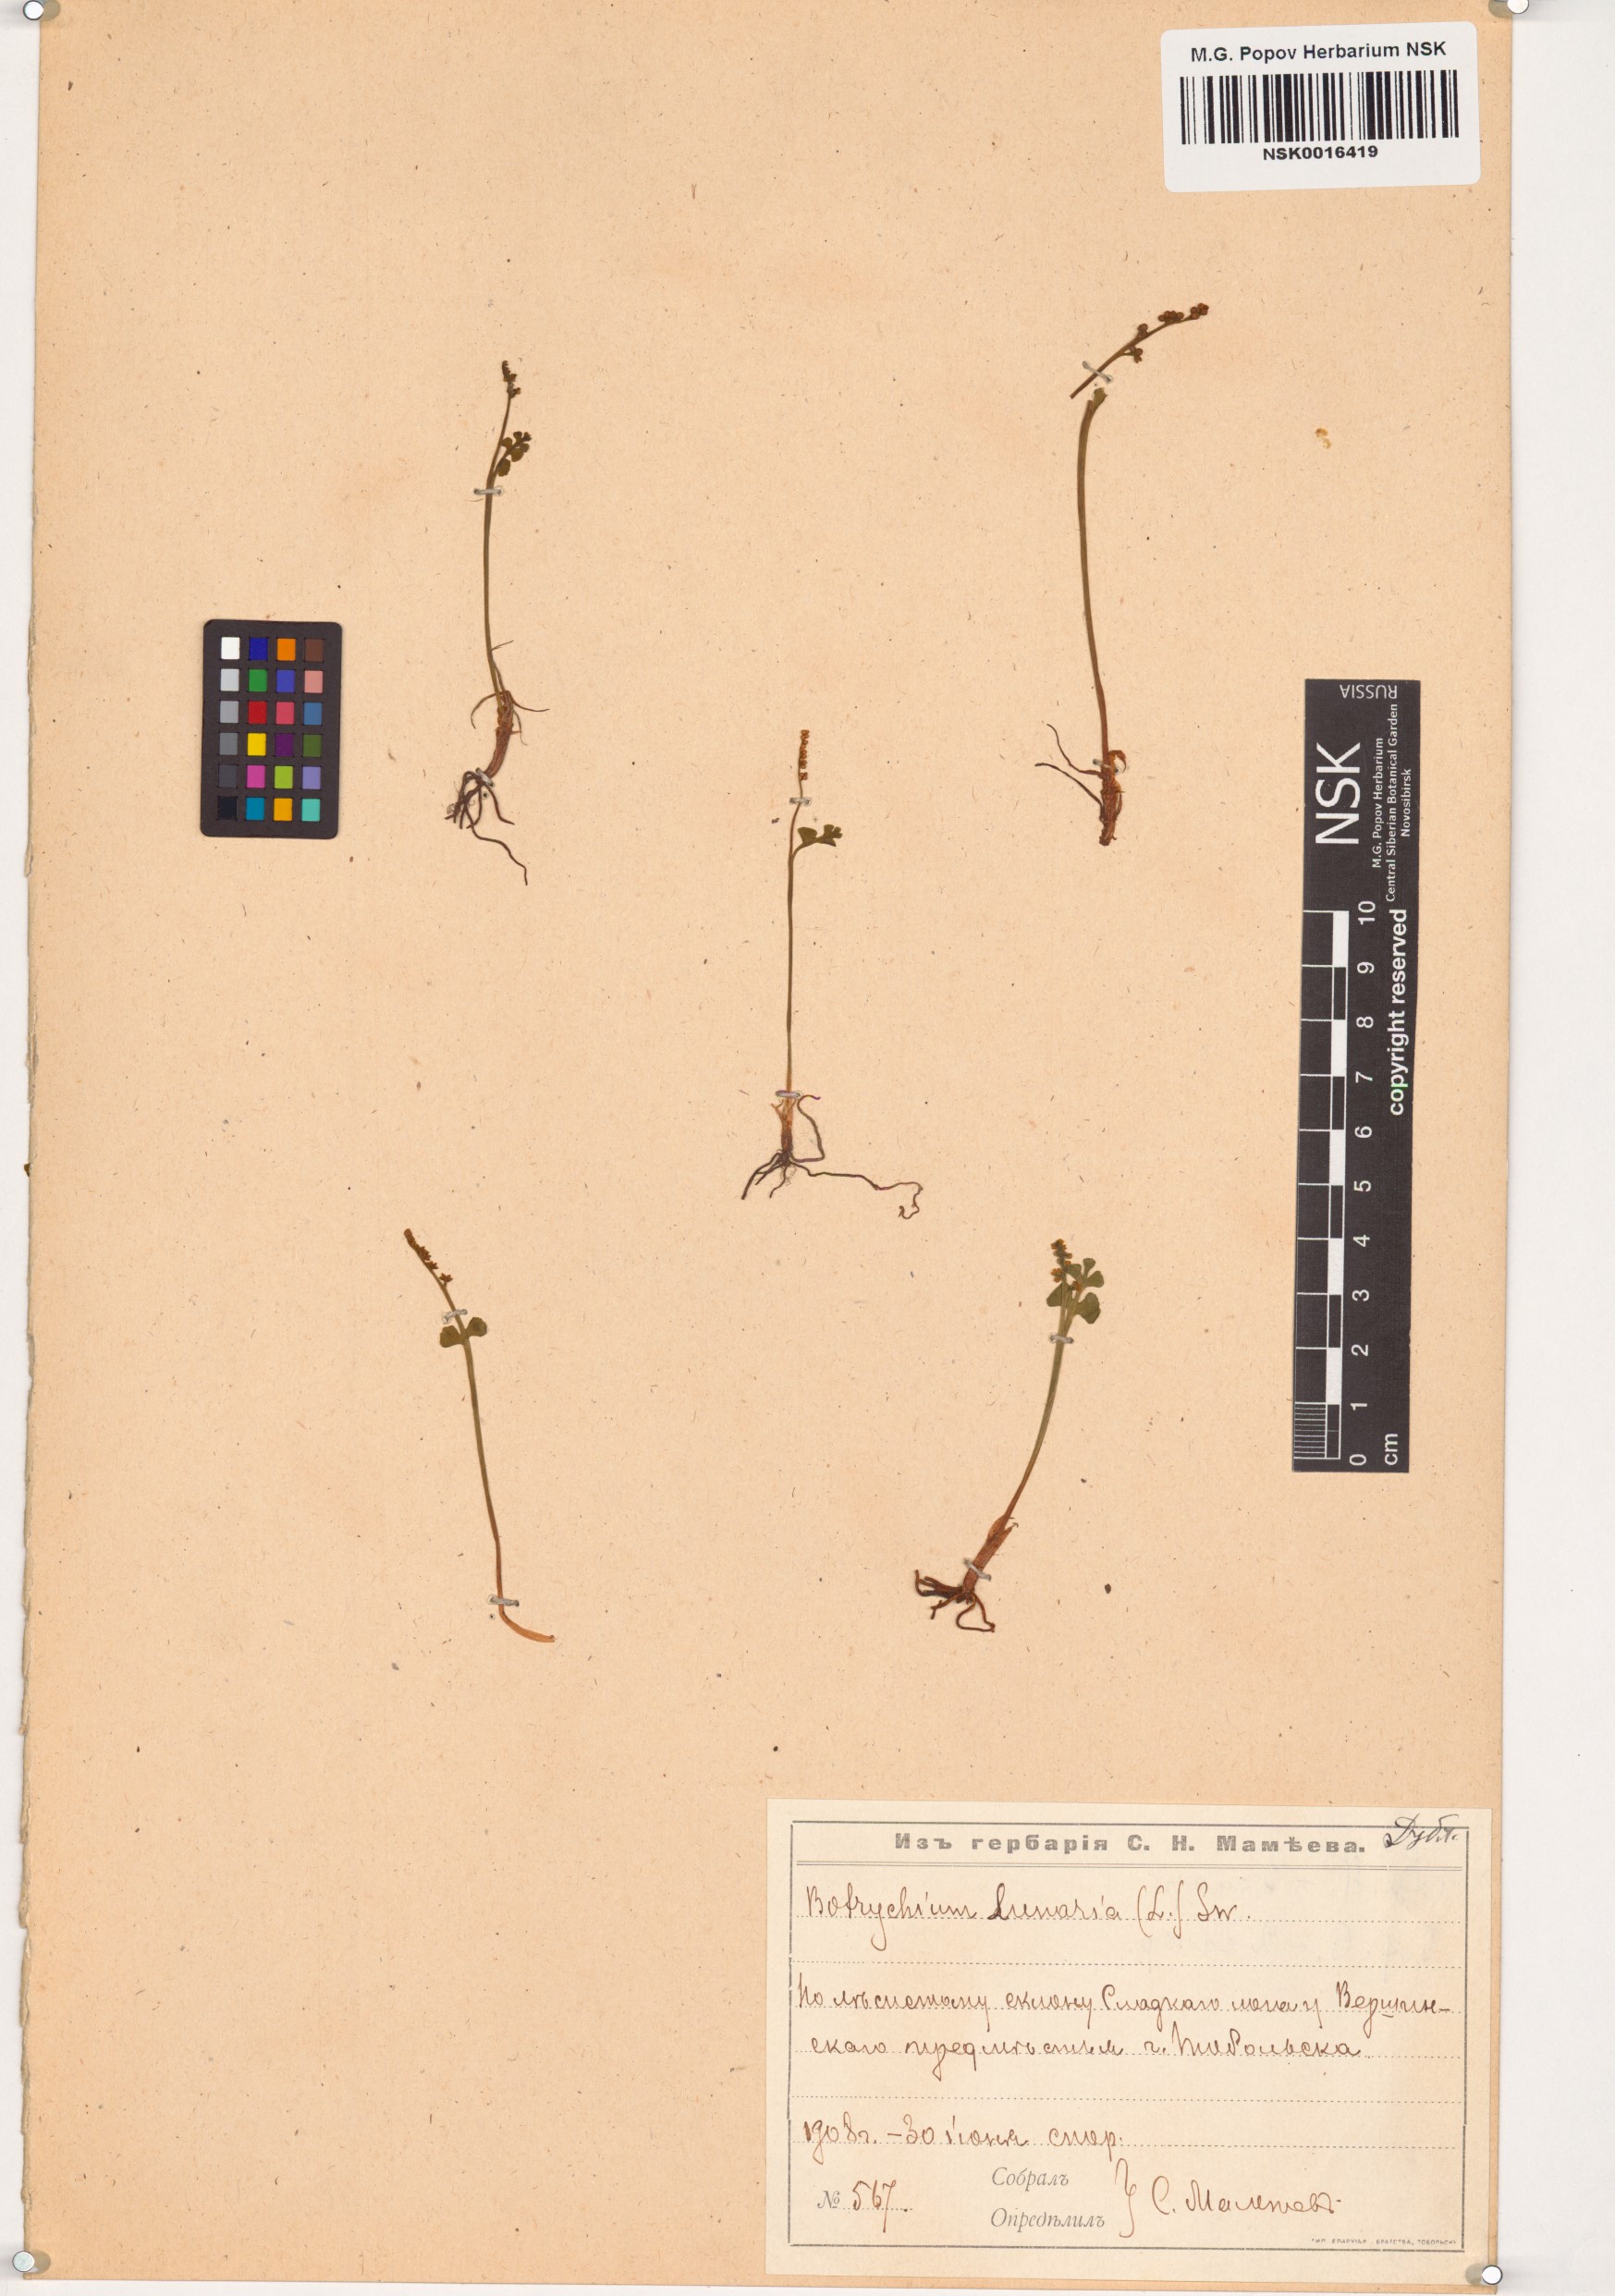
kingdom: Plantae
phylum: Tracheophyta
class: Polypodiopsida
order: Ophioglossales
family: Ophioglossaceae
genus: Botrychium
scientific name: Botrychium lunaria
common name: Moonwort
